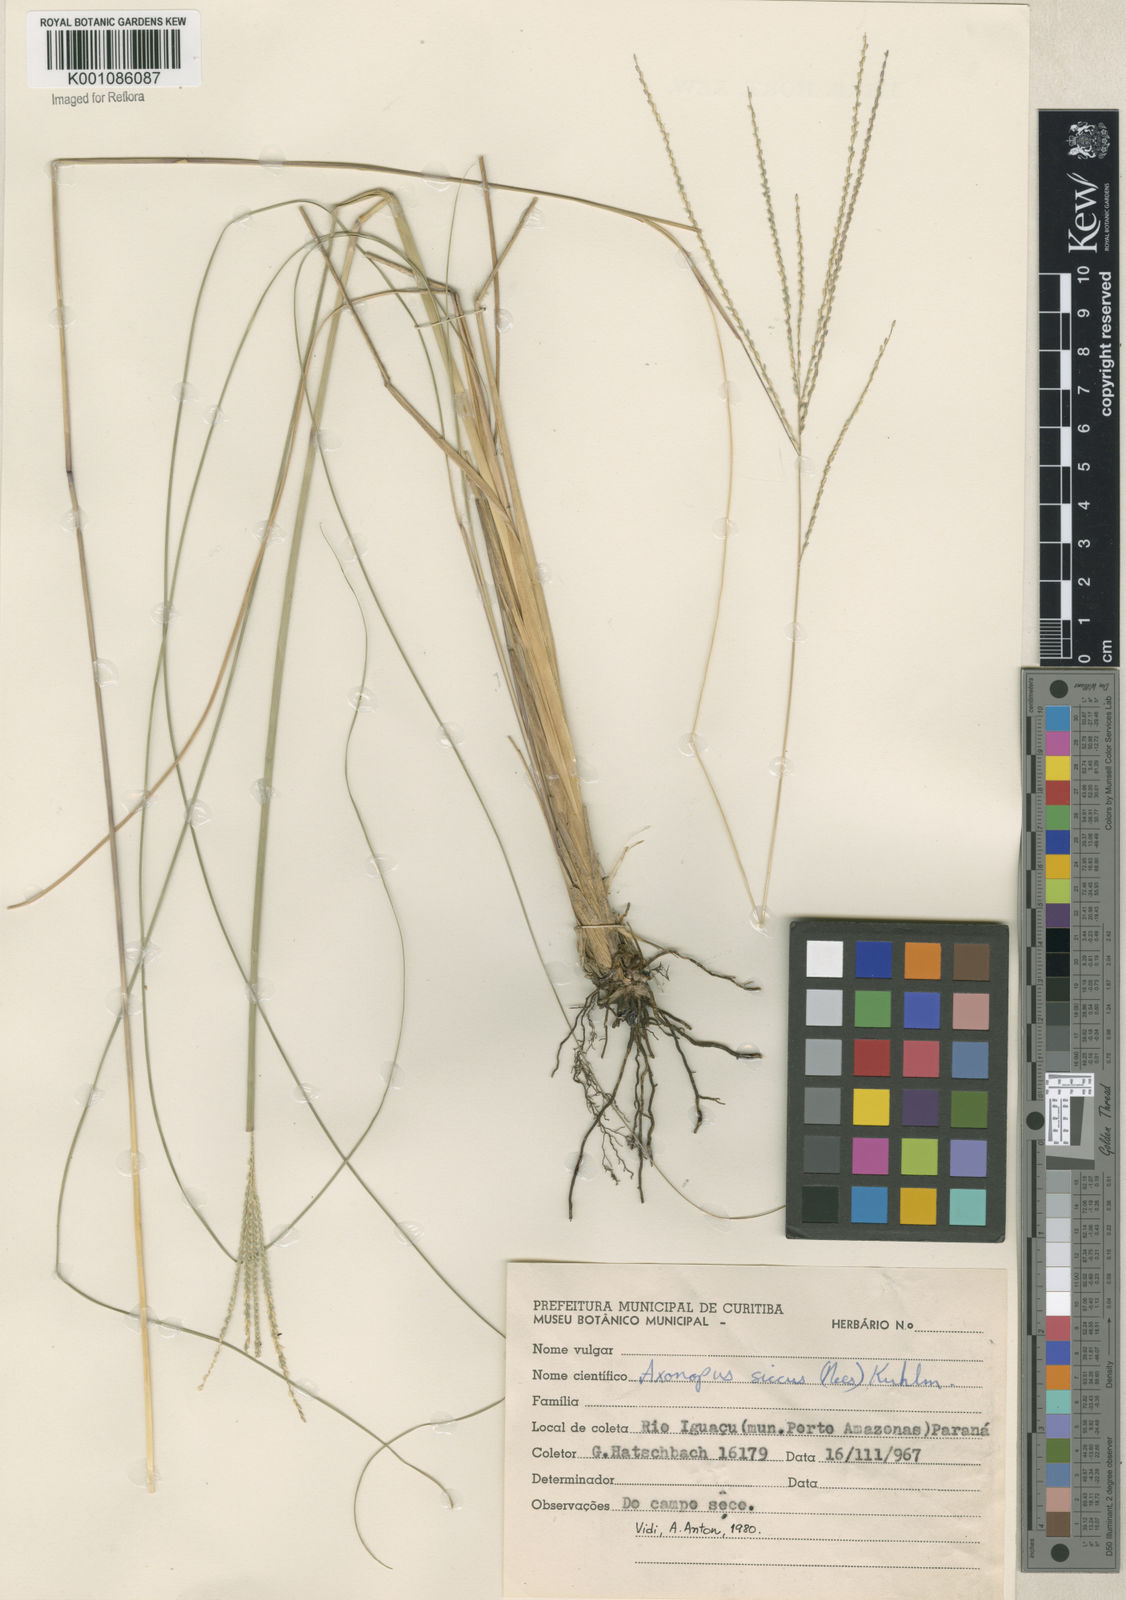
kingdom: Plantae
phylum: Tracheophyta
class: Liliopsida
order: Poales
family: Poaceae
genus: Axonopus
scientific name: Axonopus siccus
